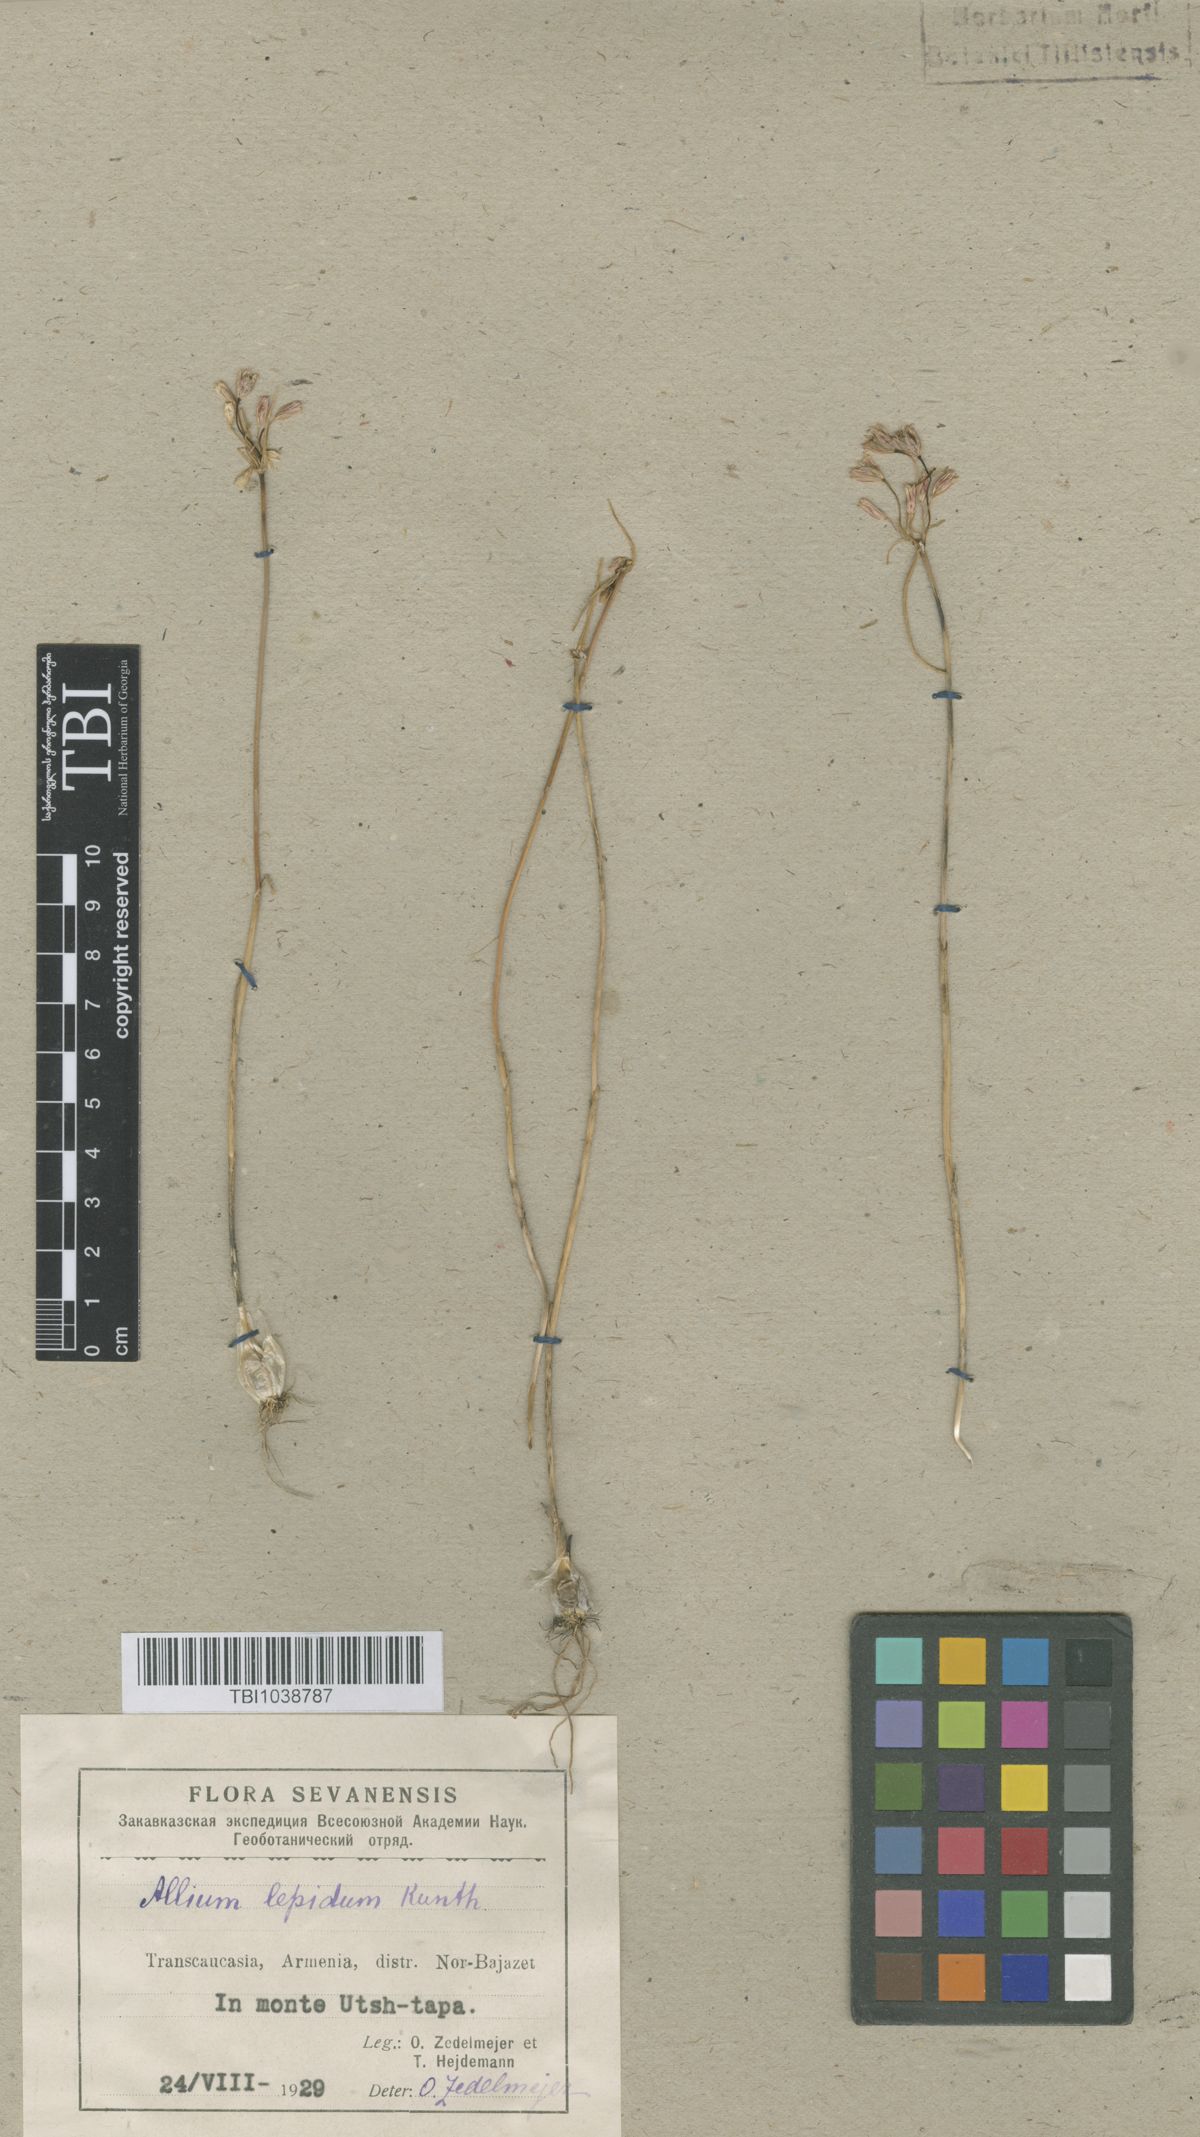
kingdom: Plantae
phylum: Tracheophyta
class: Liliopsida
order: Asparagales
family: Amaryllidaceae
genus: Allium
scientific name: Allium kunthianum
